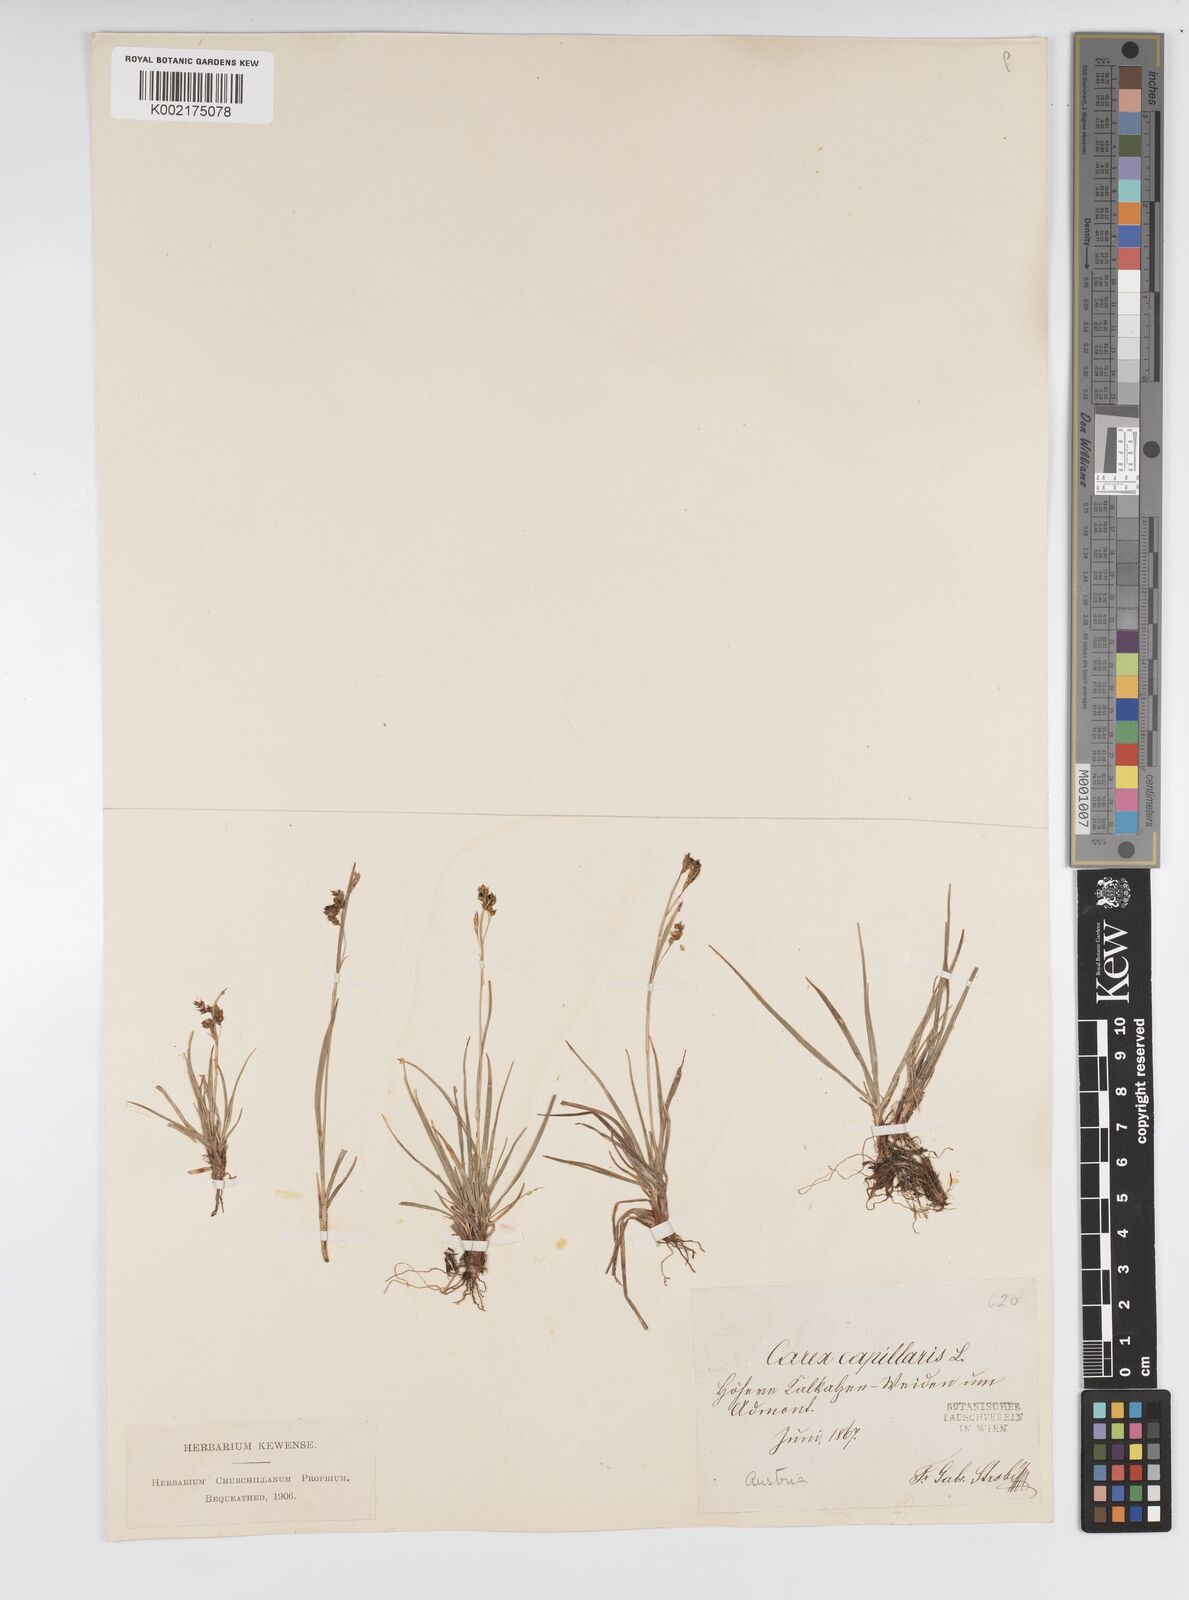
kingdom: Plantae
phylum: Tracheophyta
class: Liliopsida
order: Poales
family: Cyperaceae
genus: Carex
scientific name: Carex capillaris
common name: Hair sedge
